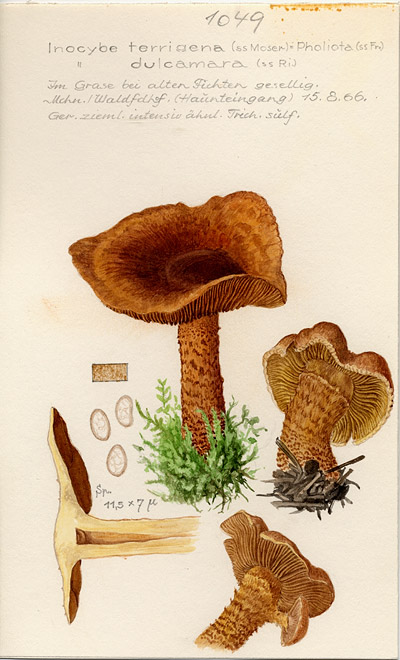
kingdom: Fungi
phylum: Basidiomycota
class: Agaricomycetes
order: Agaricales
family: Inocybaceae
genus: Mallocybe
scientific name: Mallocybe terrigena
